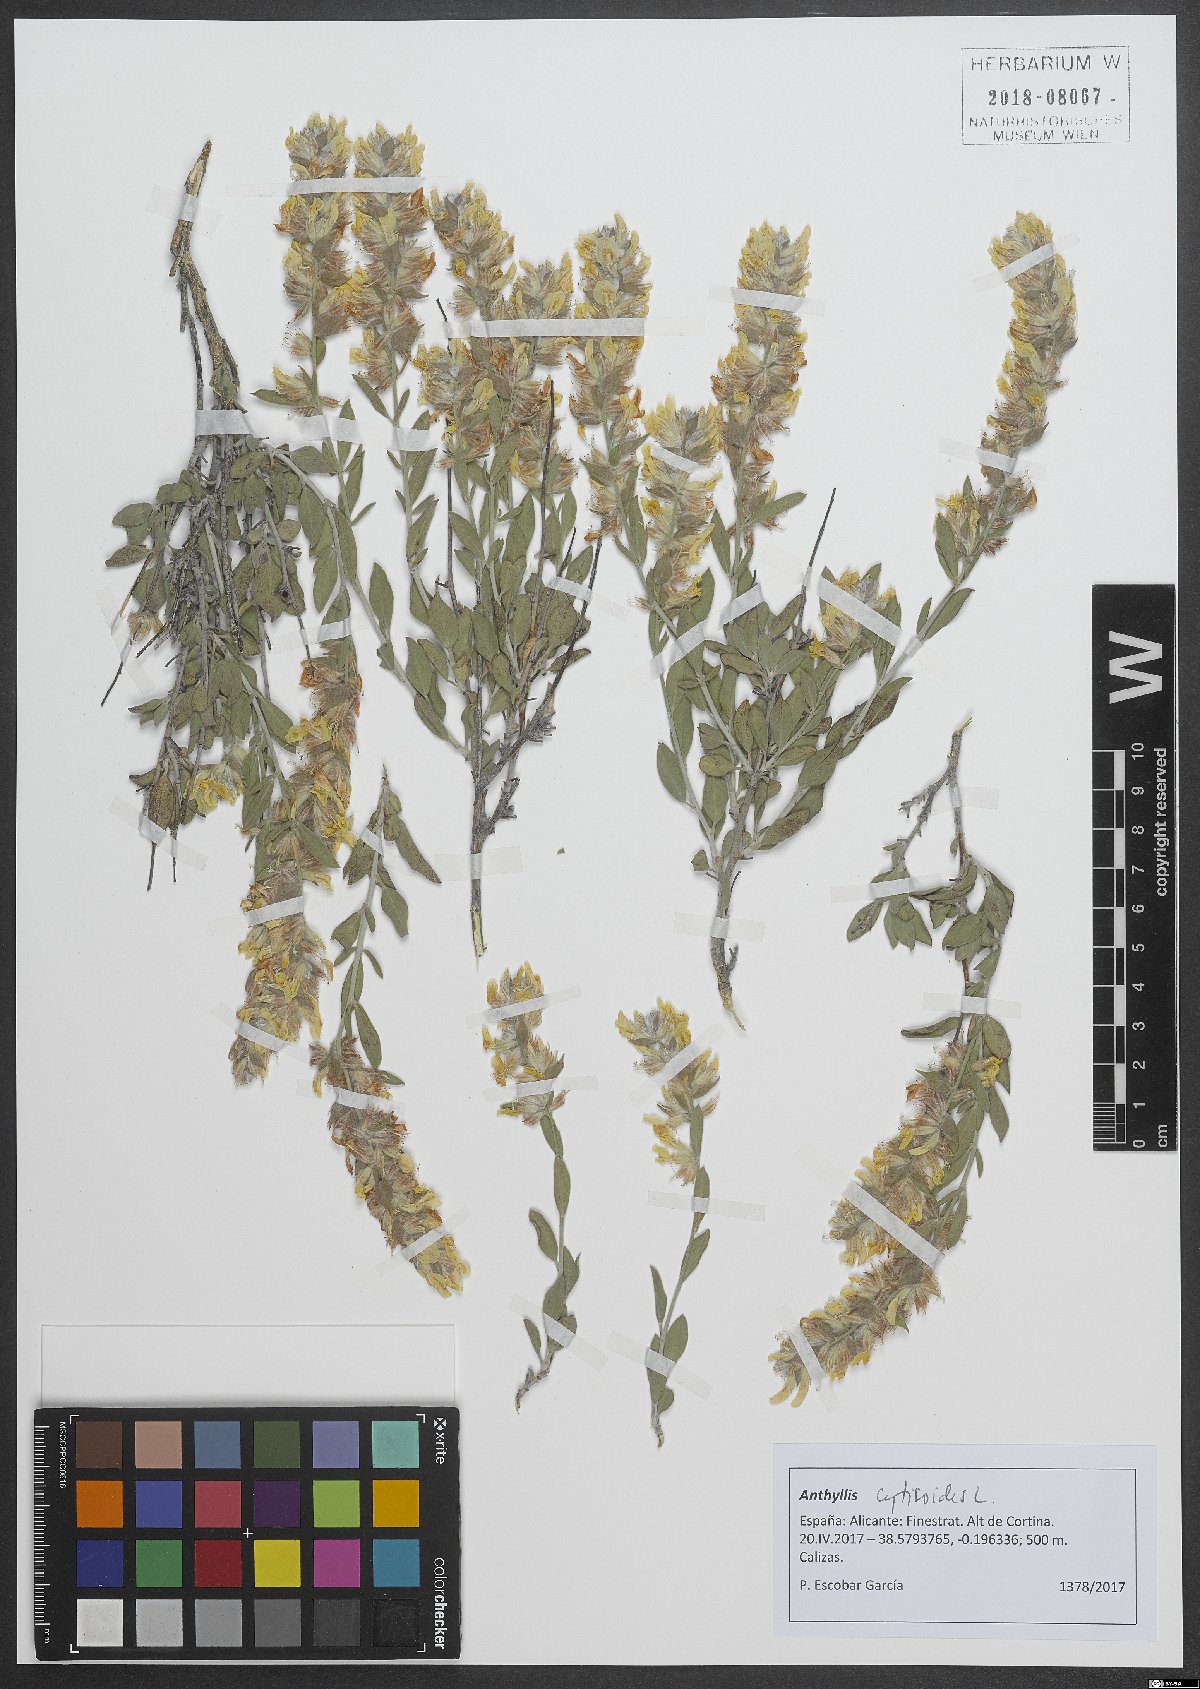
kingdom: Plantae
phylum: Tracheophyta
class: Magnoliopsida
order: Fabales
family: Fabaceae
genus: Anthyllis
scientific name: Anthyllis cytisoides
